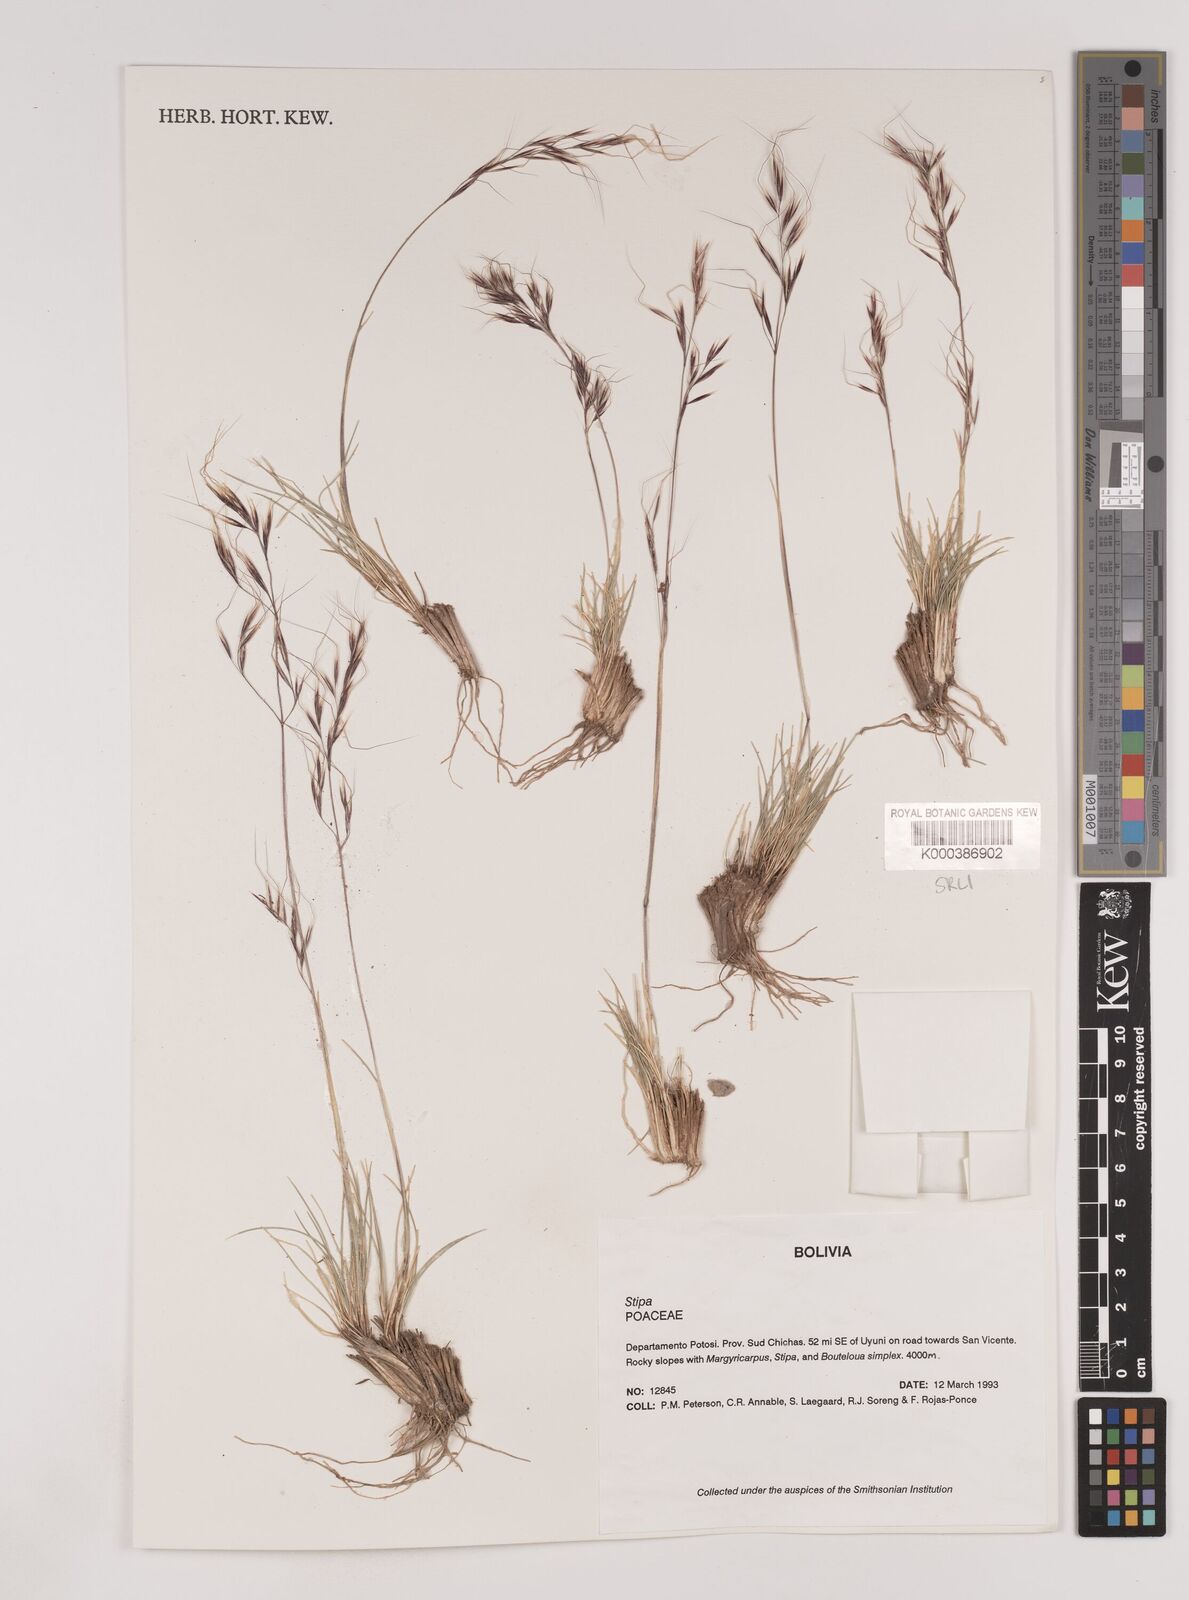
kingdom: Plantae
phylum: Tracheophyta
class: Liliopsida
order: Poales
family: Poaceae
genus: Nassella
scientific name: Nassella nardoides
